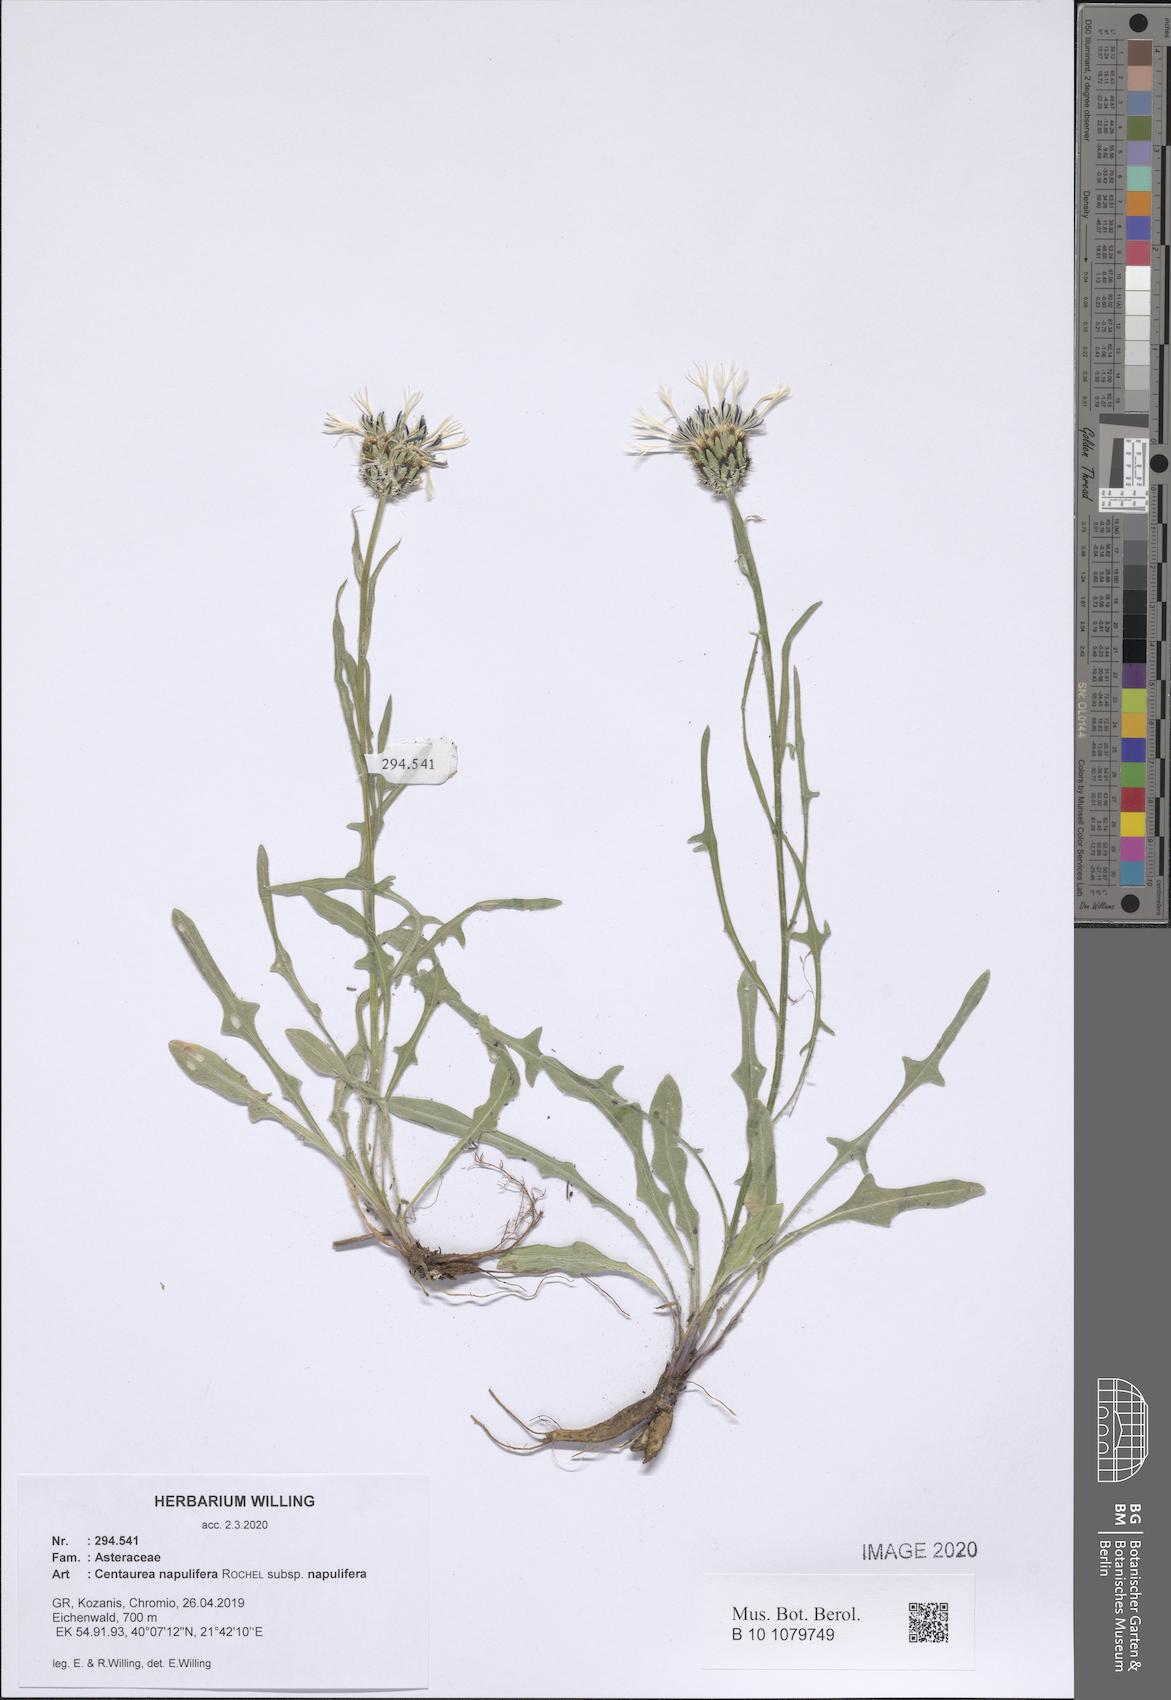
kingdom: Plantae
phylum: Tracheophyta
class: Magnoliopsida
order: Asterales
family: Asteraceae
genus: Centaurea
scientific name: Centaurea napulifera
